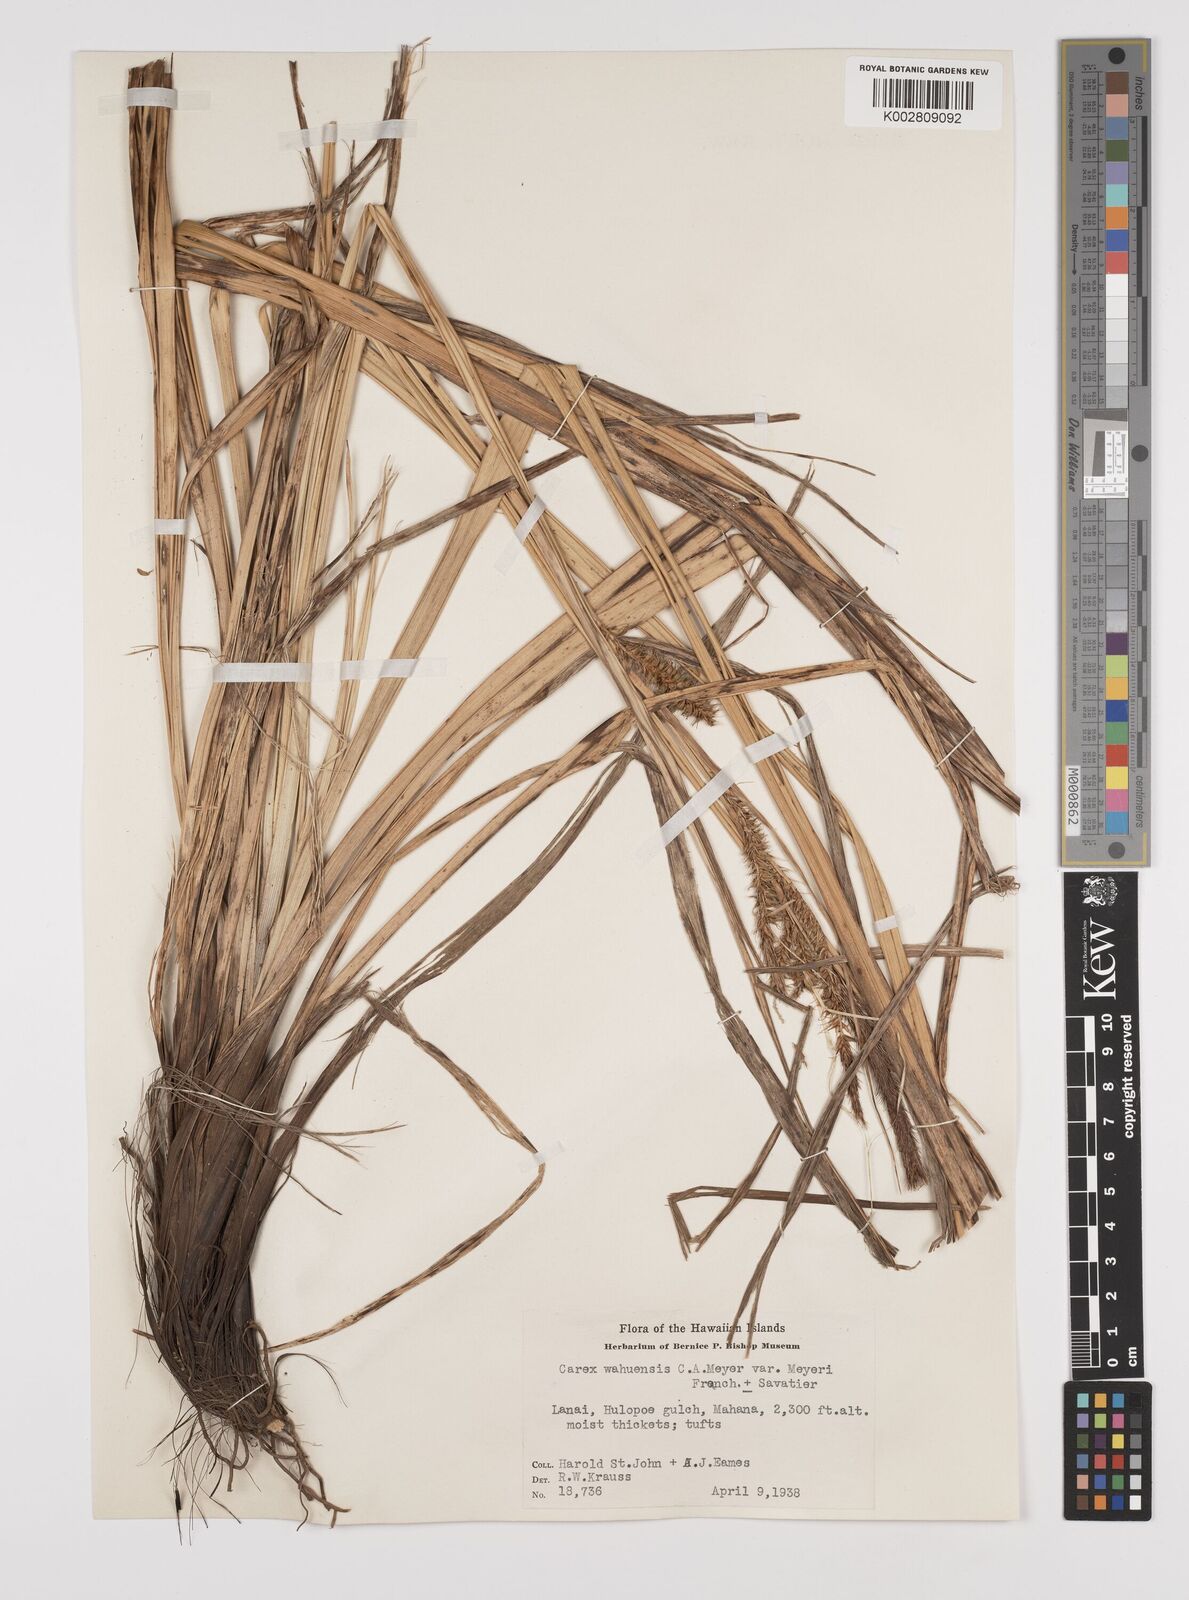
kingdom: Plantae
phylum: Tracheophyta
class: Liliopsida
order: Poales
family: Cyperaceae
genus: Carex
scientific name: Carex wahuensis
